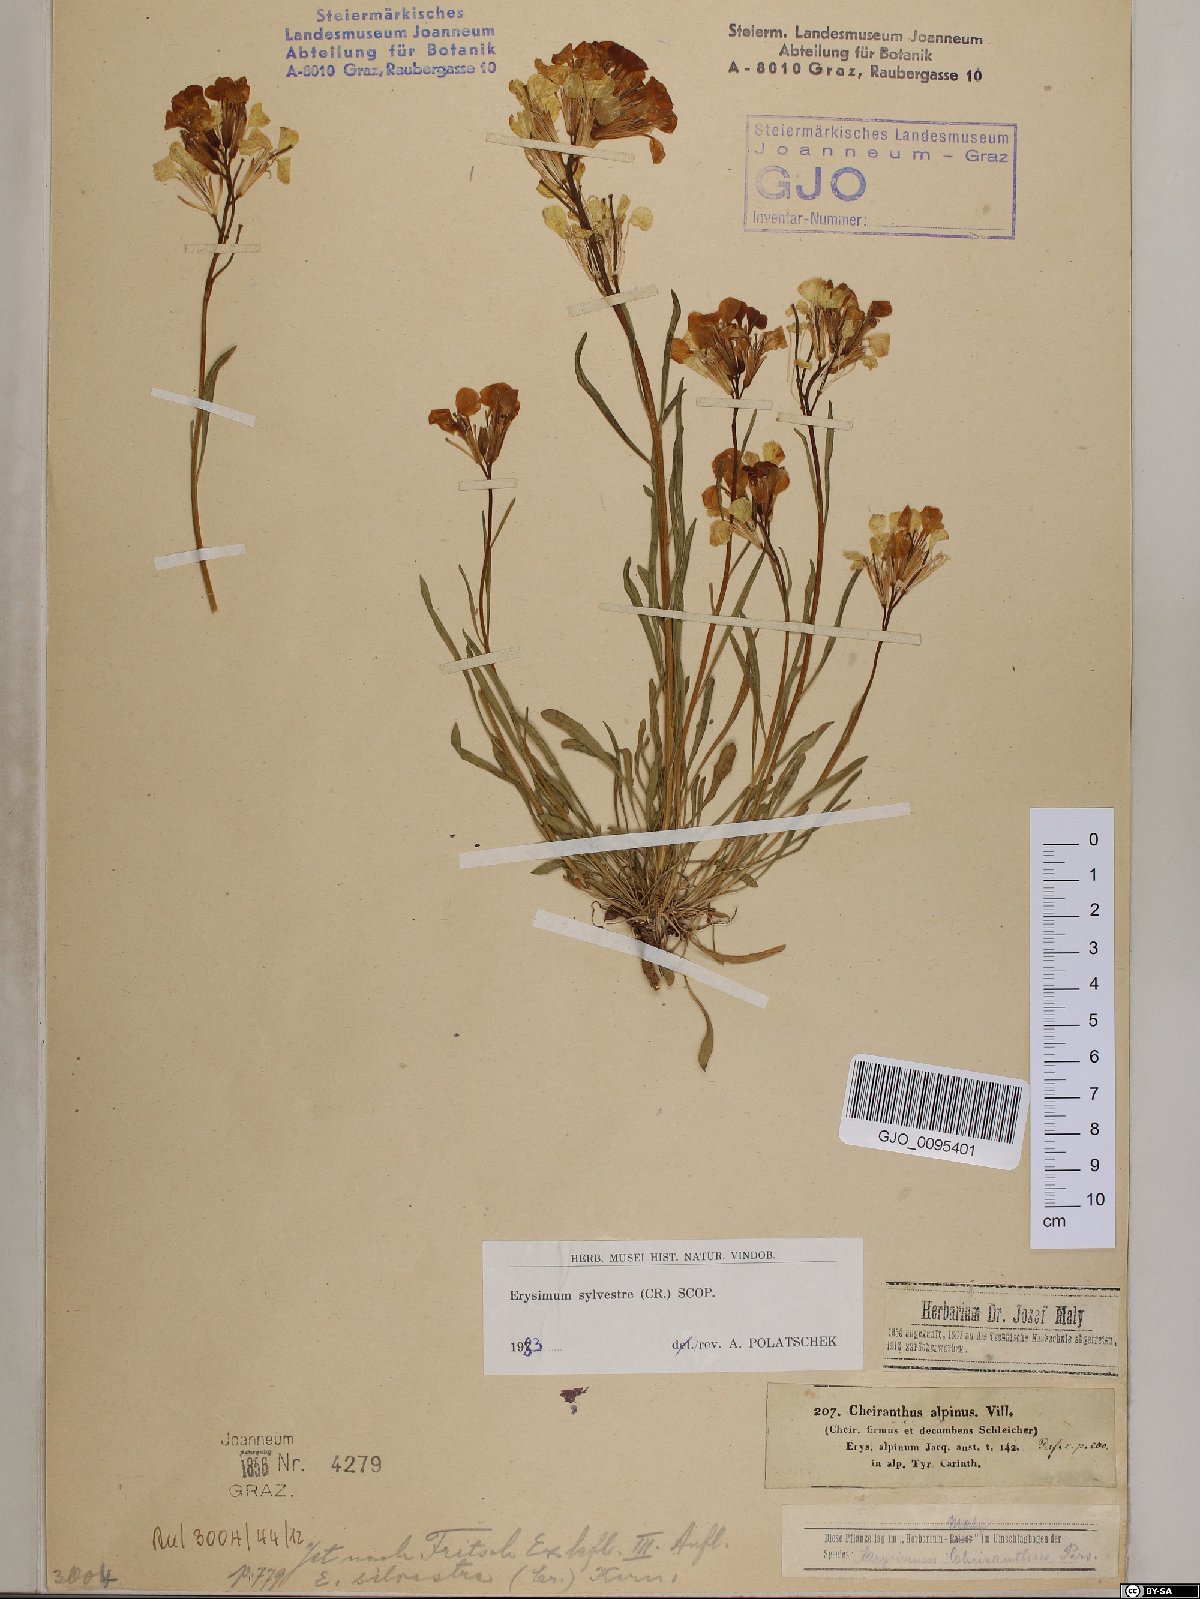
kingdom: Plantae
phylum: Tracheophyta
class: Magnoliopsida
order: Brassicales
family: Brassicaceae
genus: Erysimum
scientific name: Erysimum sylvestre
